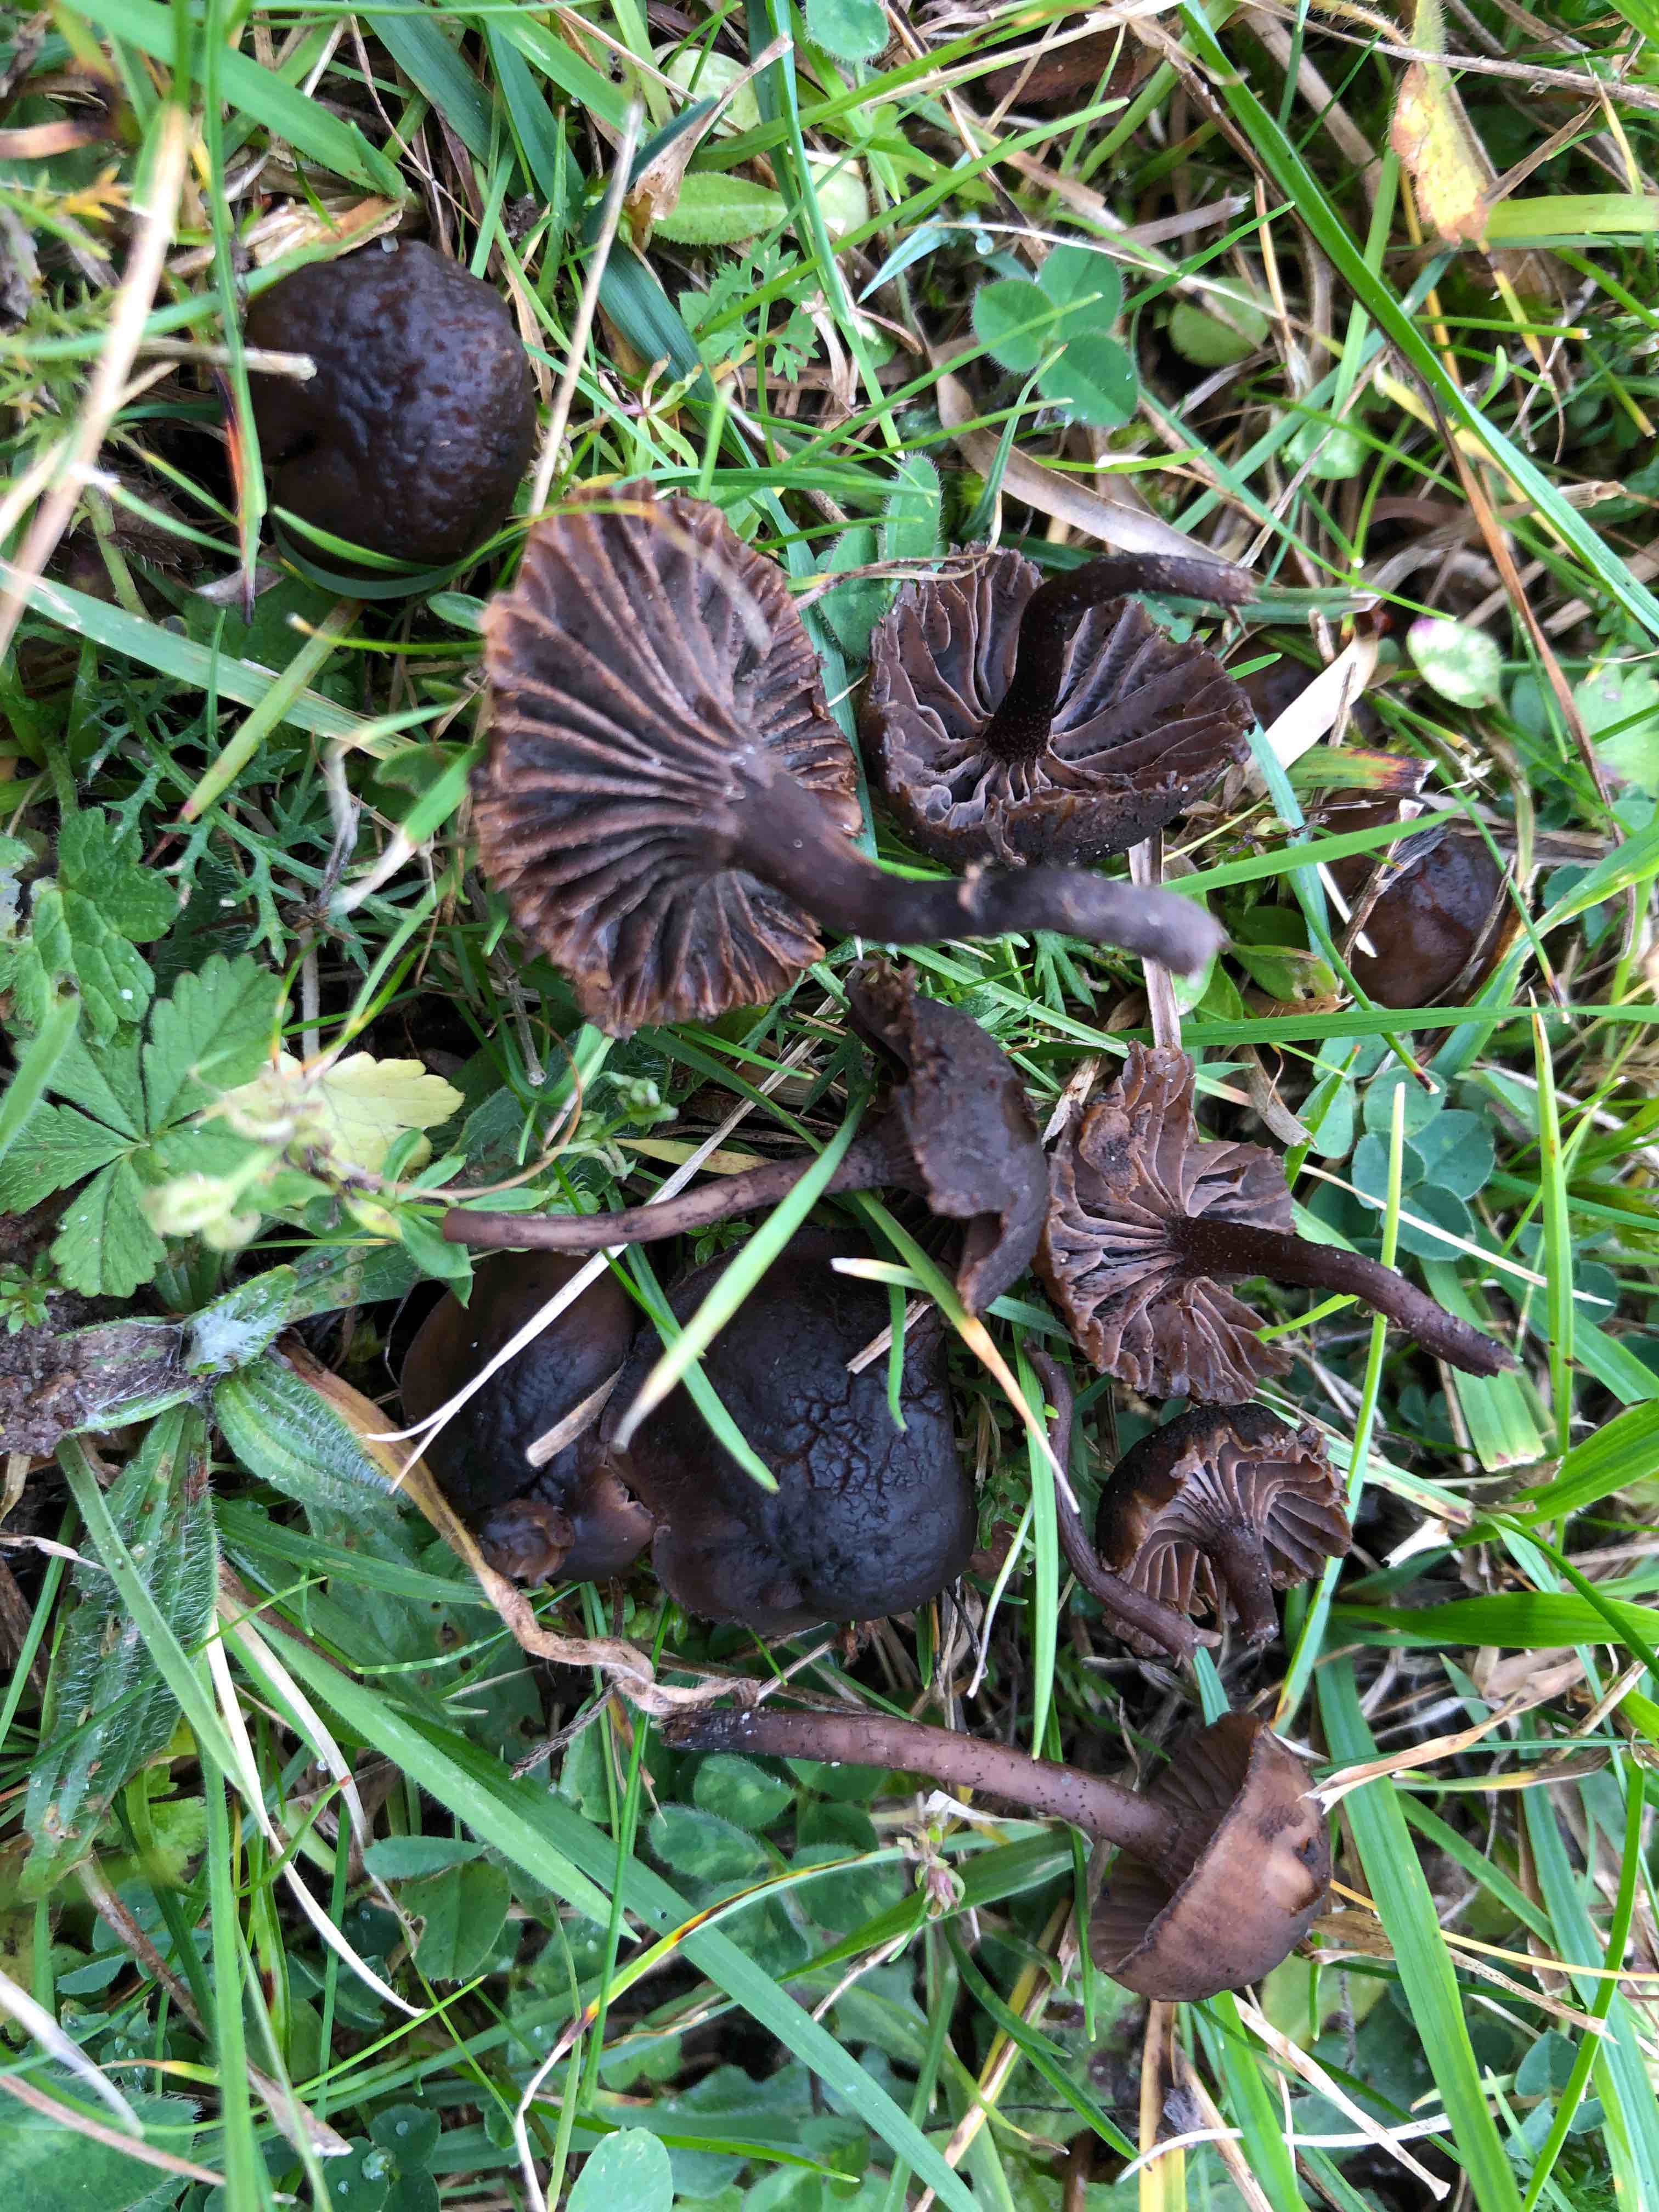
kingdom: Fungi
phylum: Basidiomycota
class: Agaricomycetes
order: Agaricales
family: Clavariaceae
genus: Hodophilus
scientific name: Hodophilus foetens
